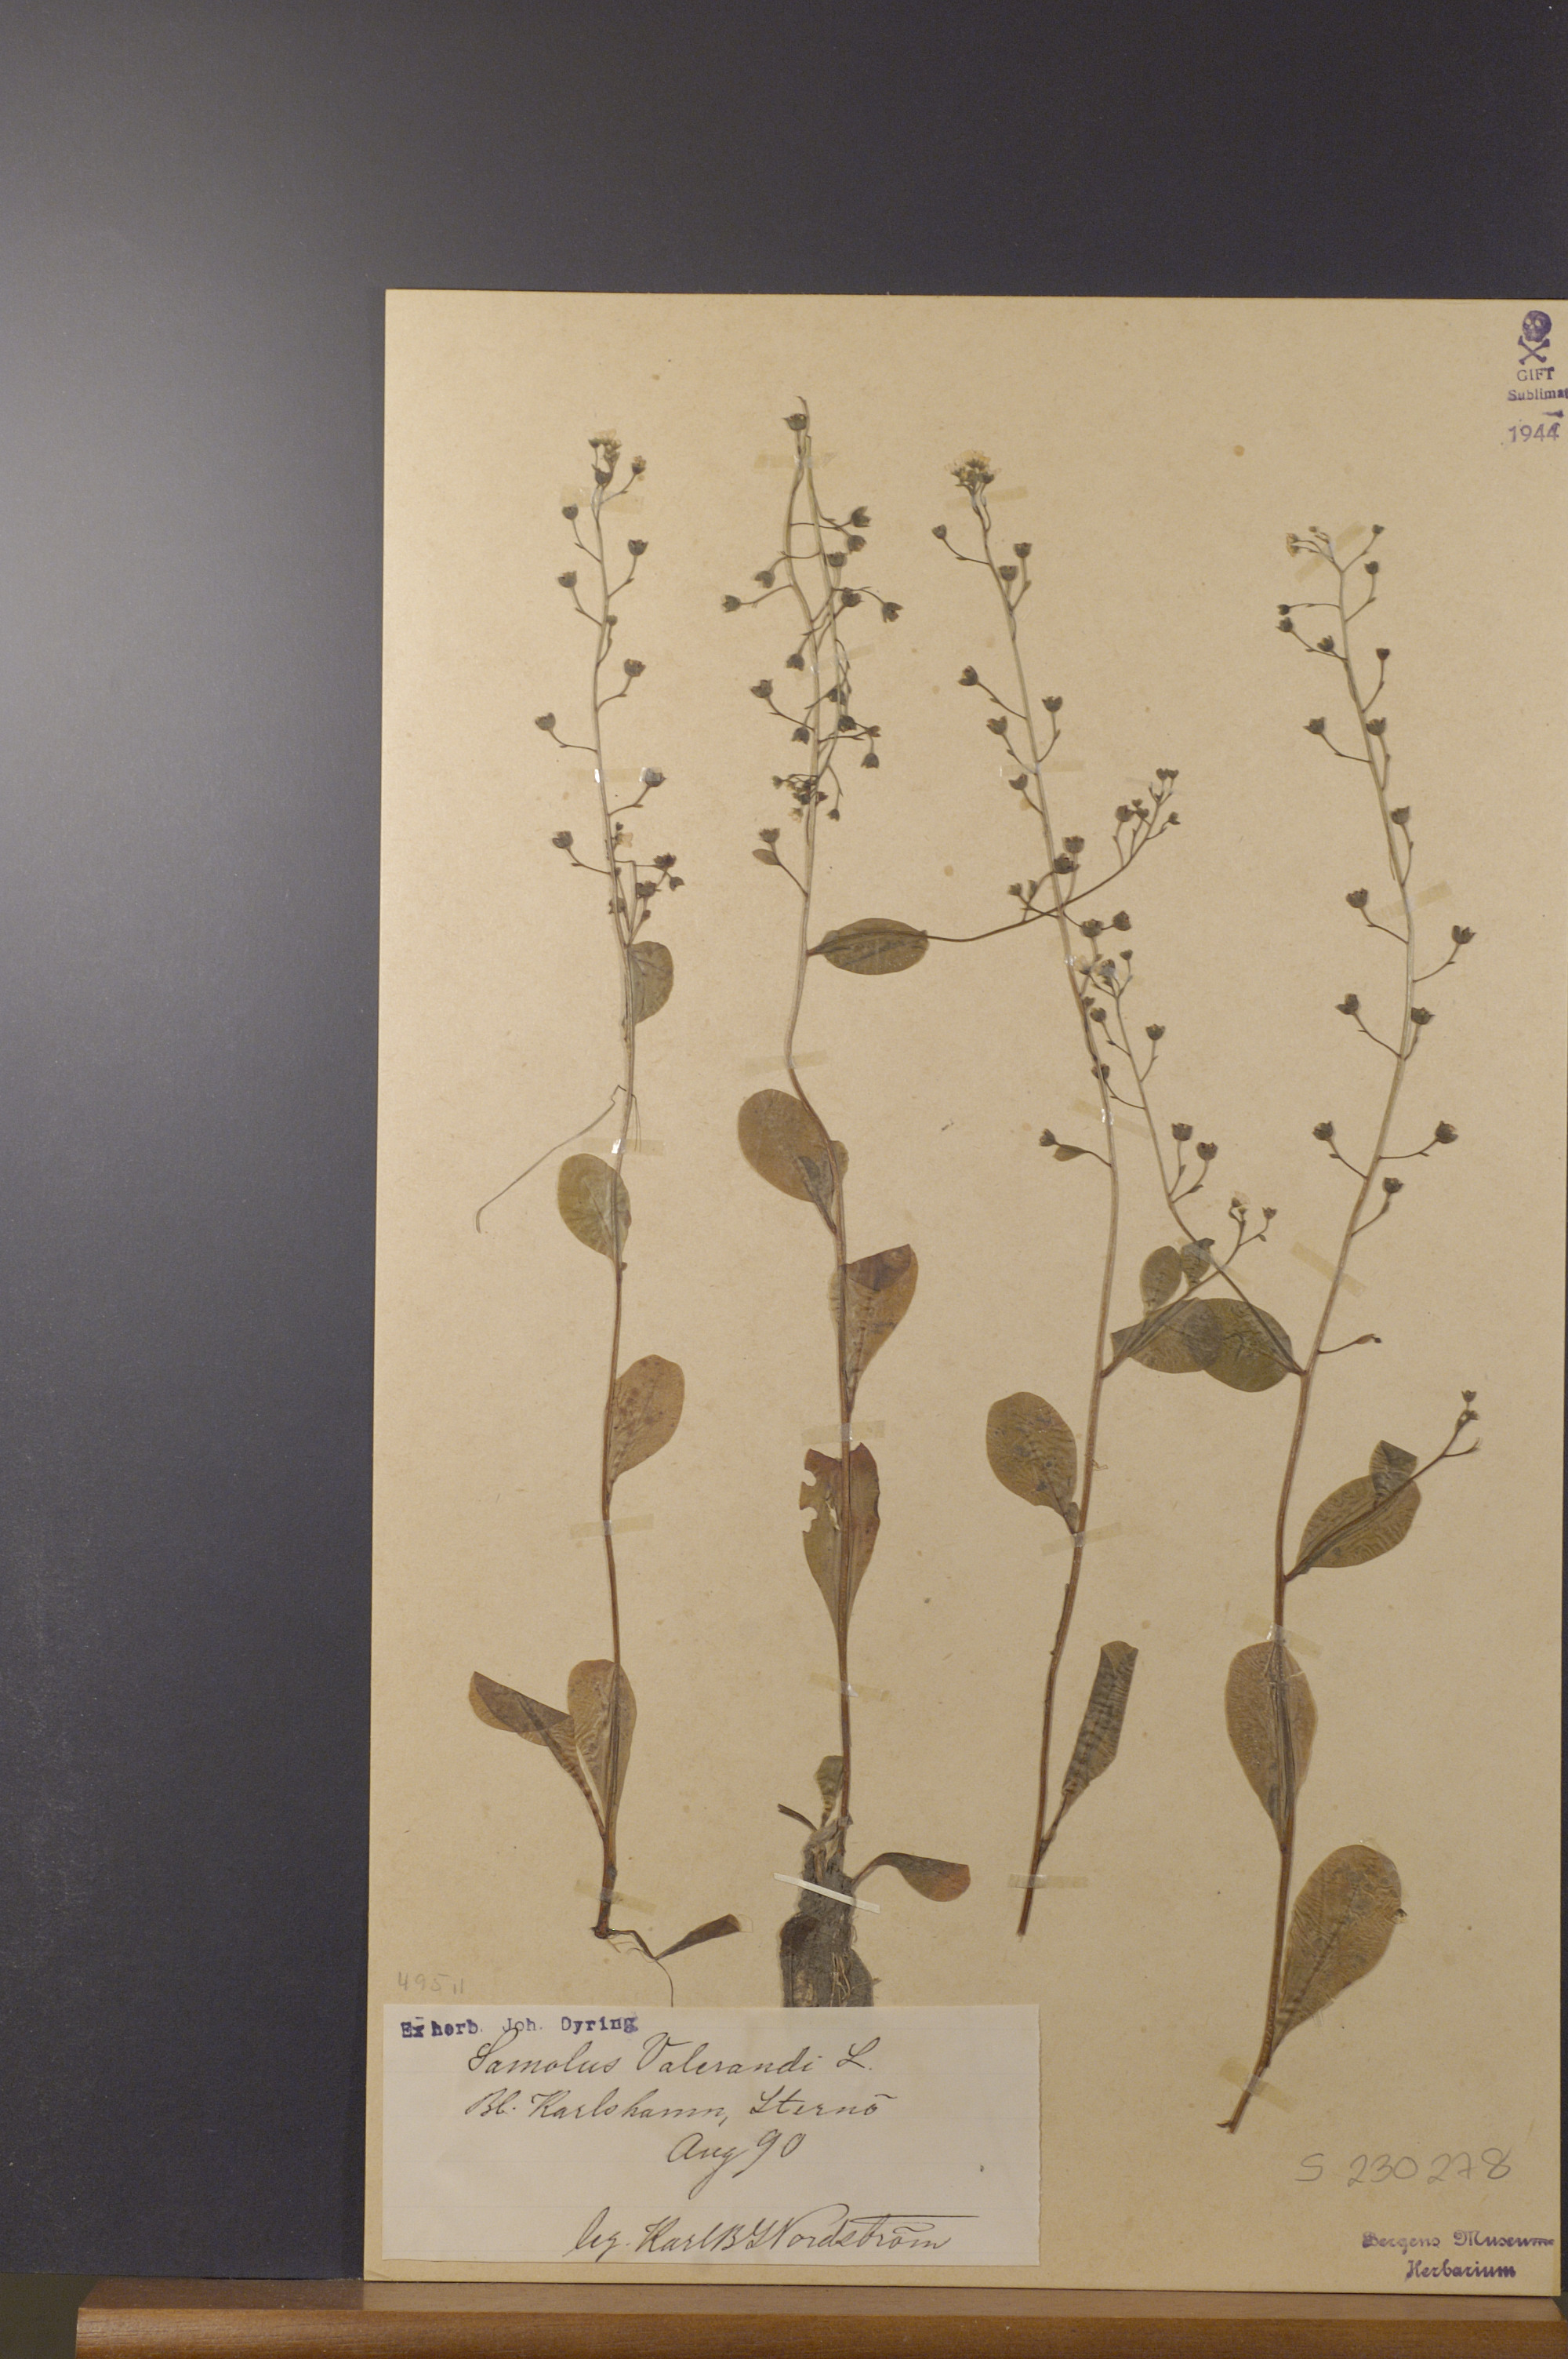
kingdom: Plantae
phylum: Tracheophyta
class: Magnoliopsida
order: Ericales
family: Primulaceae
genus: Samolus
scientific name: Samolus valerandi
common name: Brookweed
